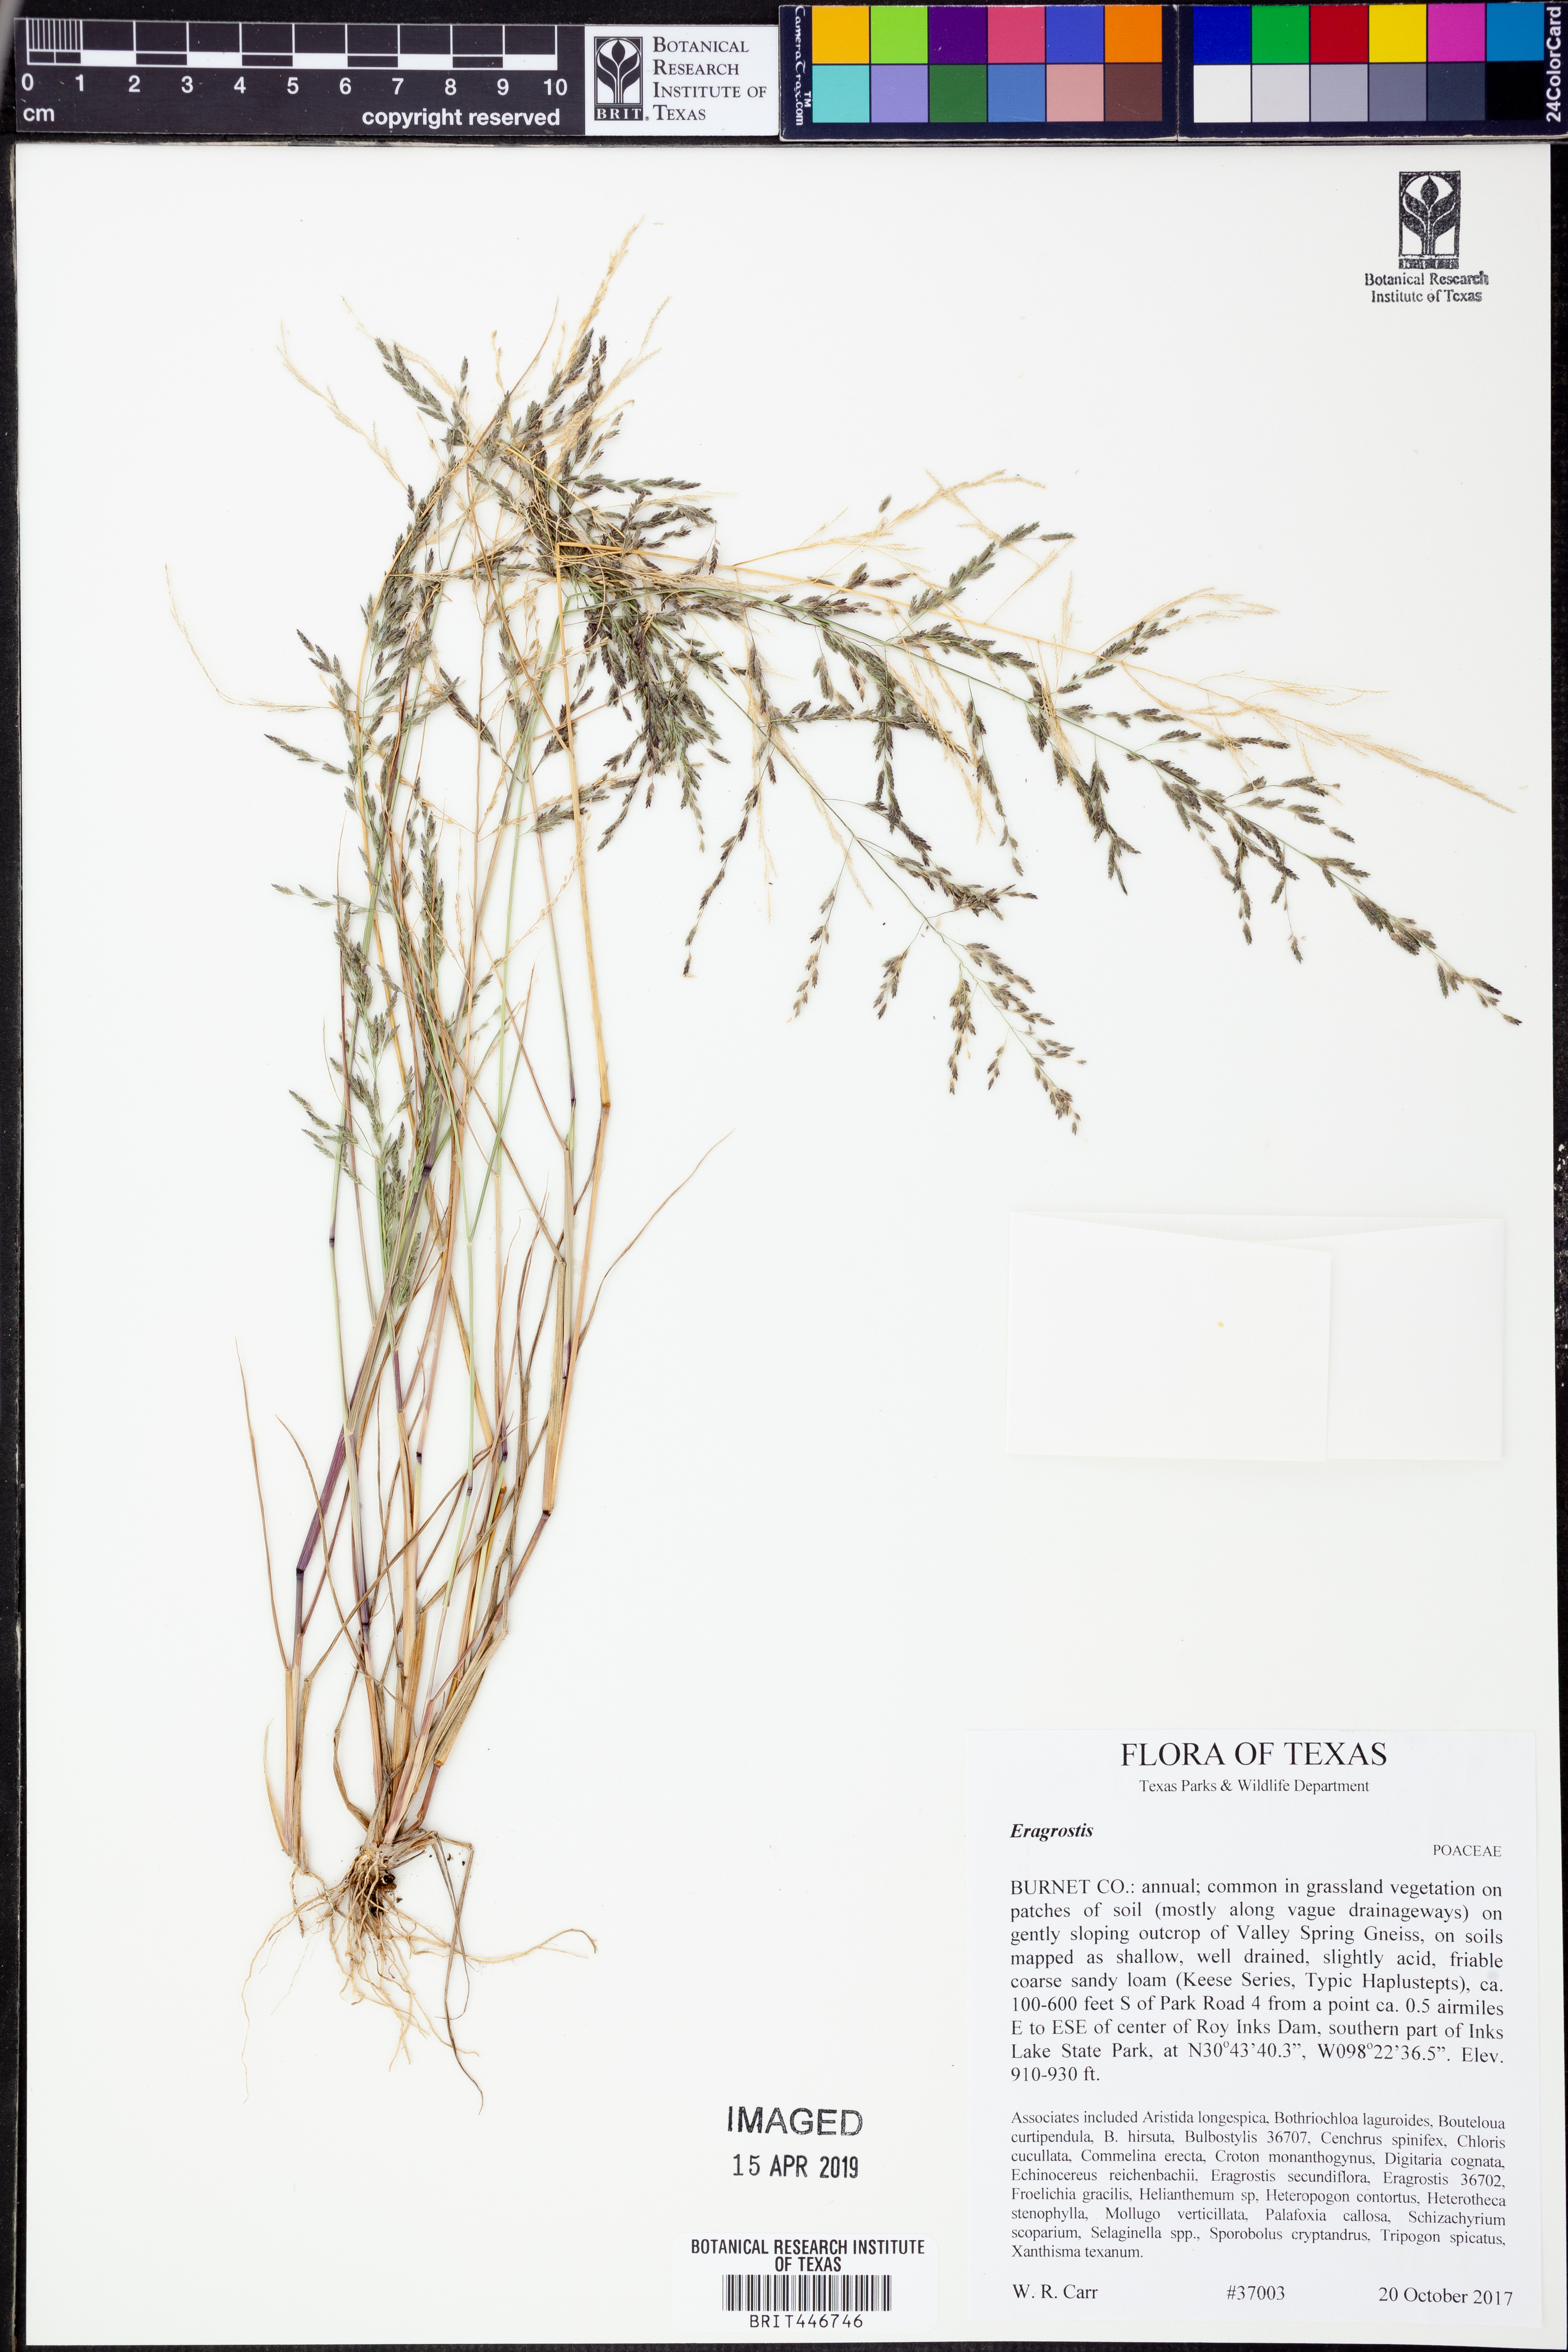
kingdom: Plantae
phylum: Tracheophyta
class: Liliopsida
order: Poales
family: Poaceae
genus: Eragrostis
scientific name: Eragrostis pectinacea
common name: Tufted lovegrass
